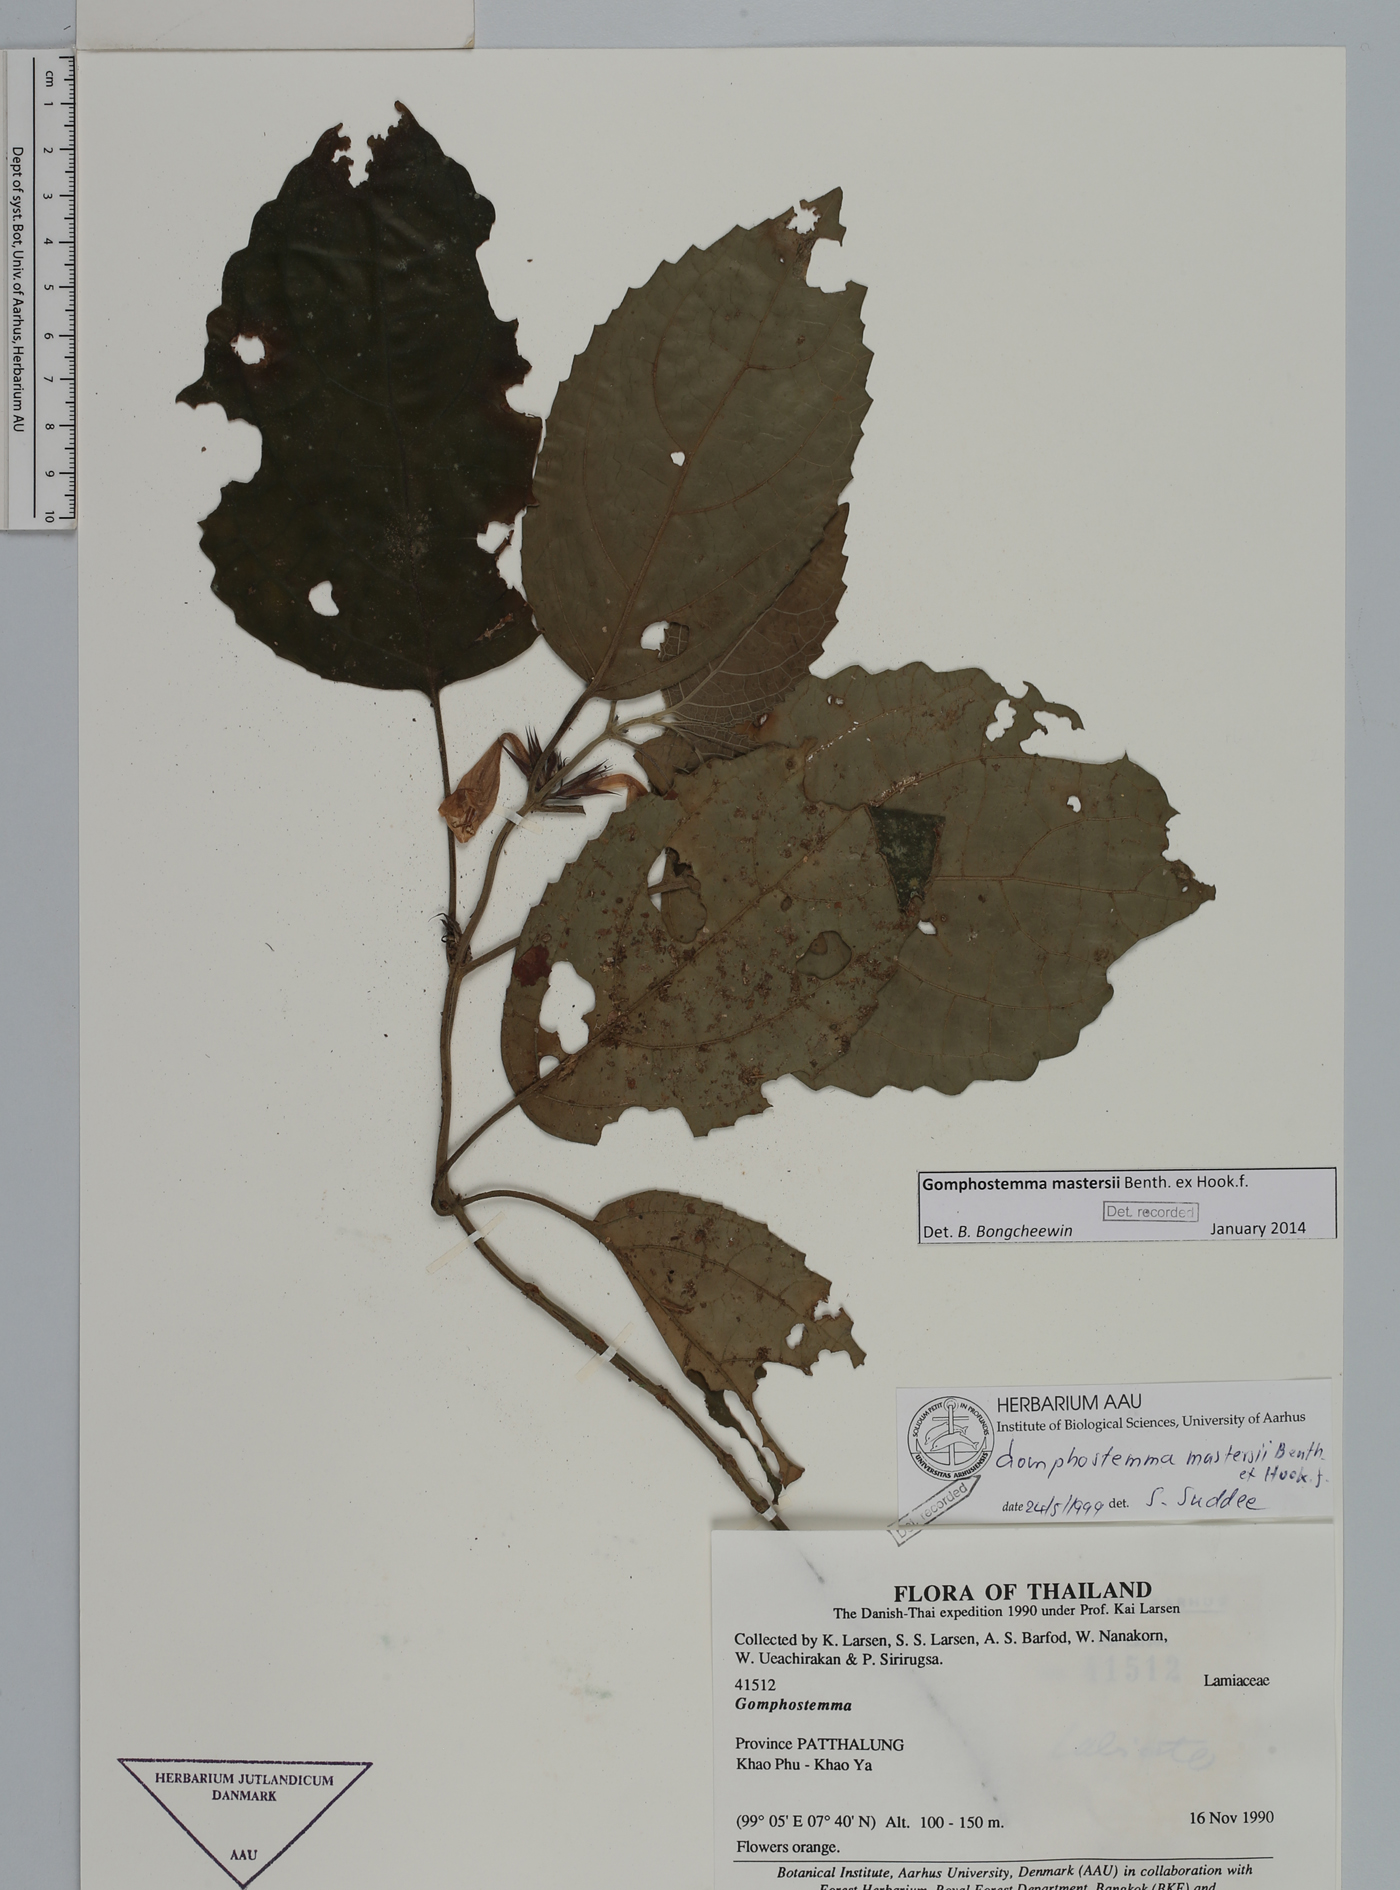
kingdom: Plantae
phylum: Tracheophyta
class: Magnoliopsida
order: Lamiales
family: Lamiaceae
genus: Gomphostemma
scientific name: Gomphostemma mastersii
